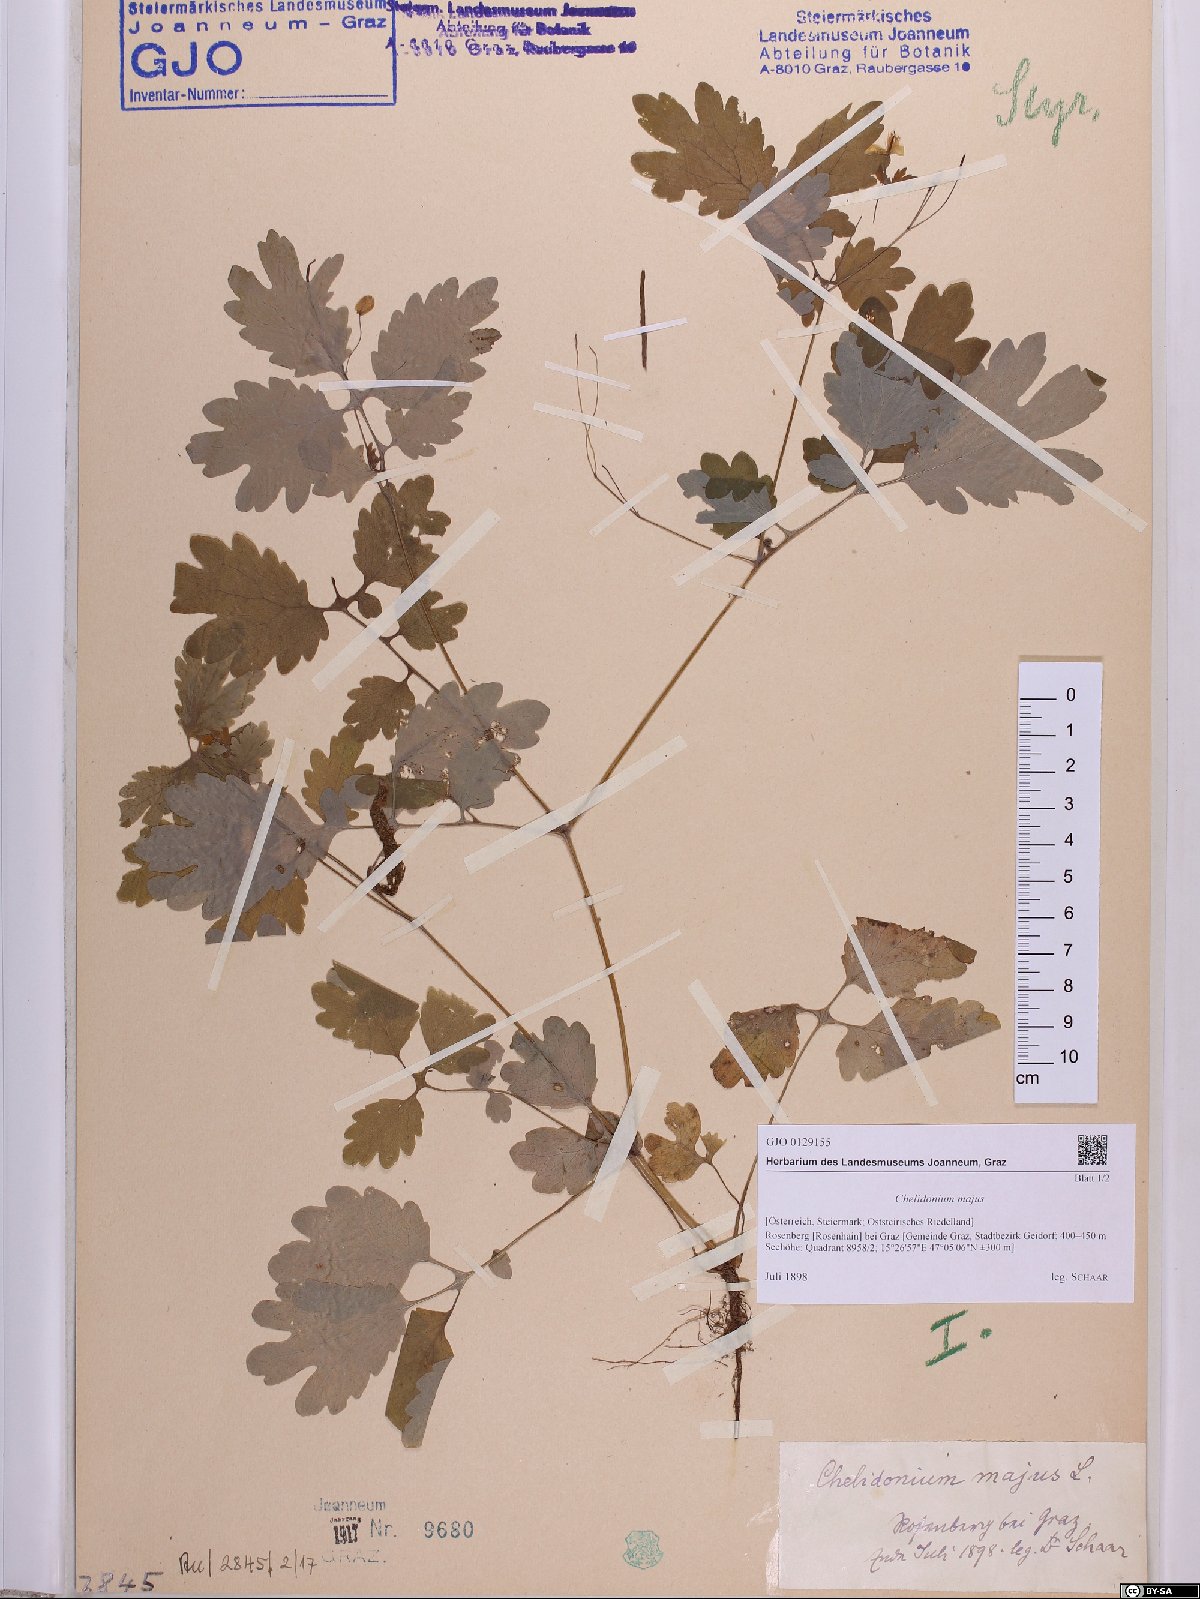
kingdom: Plantae
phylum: Tracheophyta
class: Magnoliopsida
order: Ranunculales
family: Papaveraceae
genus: Chelidonium
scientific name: Chelidonium majus
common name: Greater celandine
